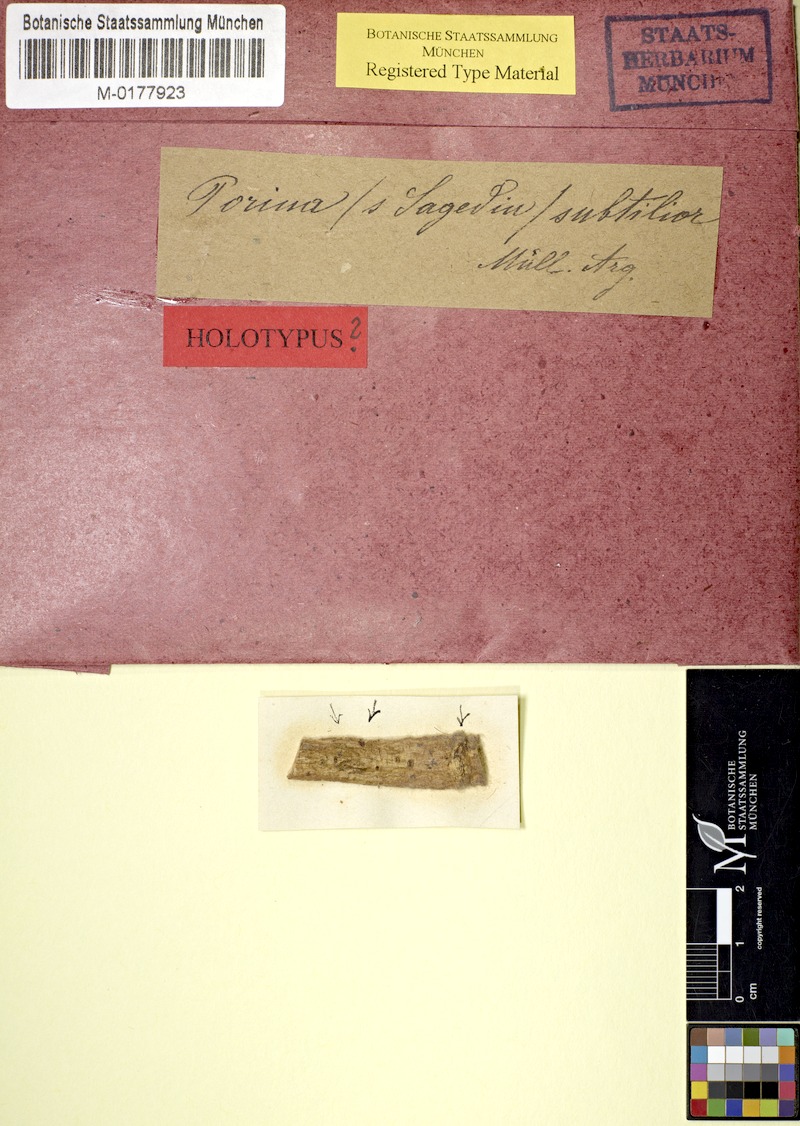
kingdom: Fungi
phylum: Ascomycota
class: Lecanoromycetes
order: Pertusariales
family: Pertusariaceae
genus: Porina
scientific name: Porina
